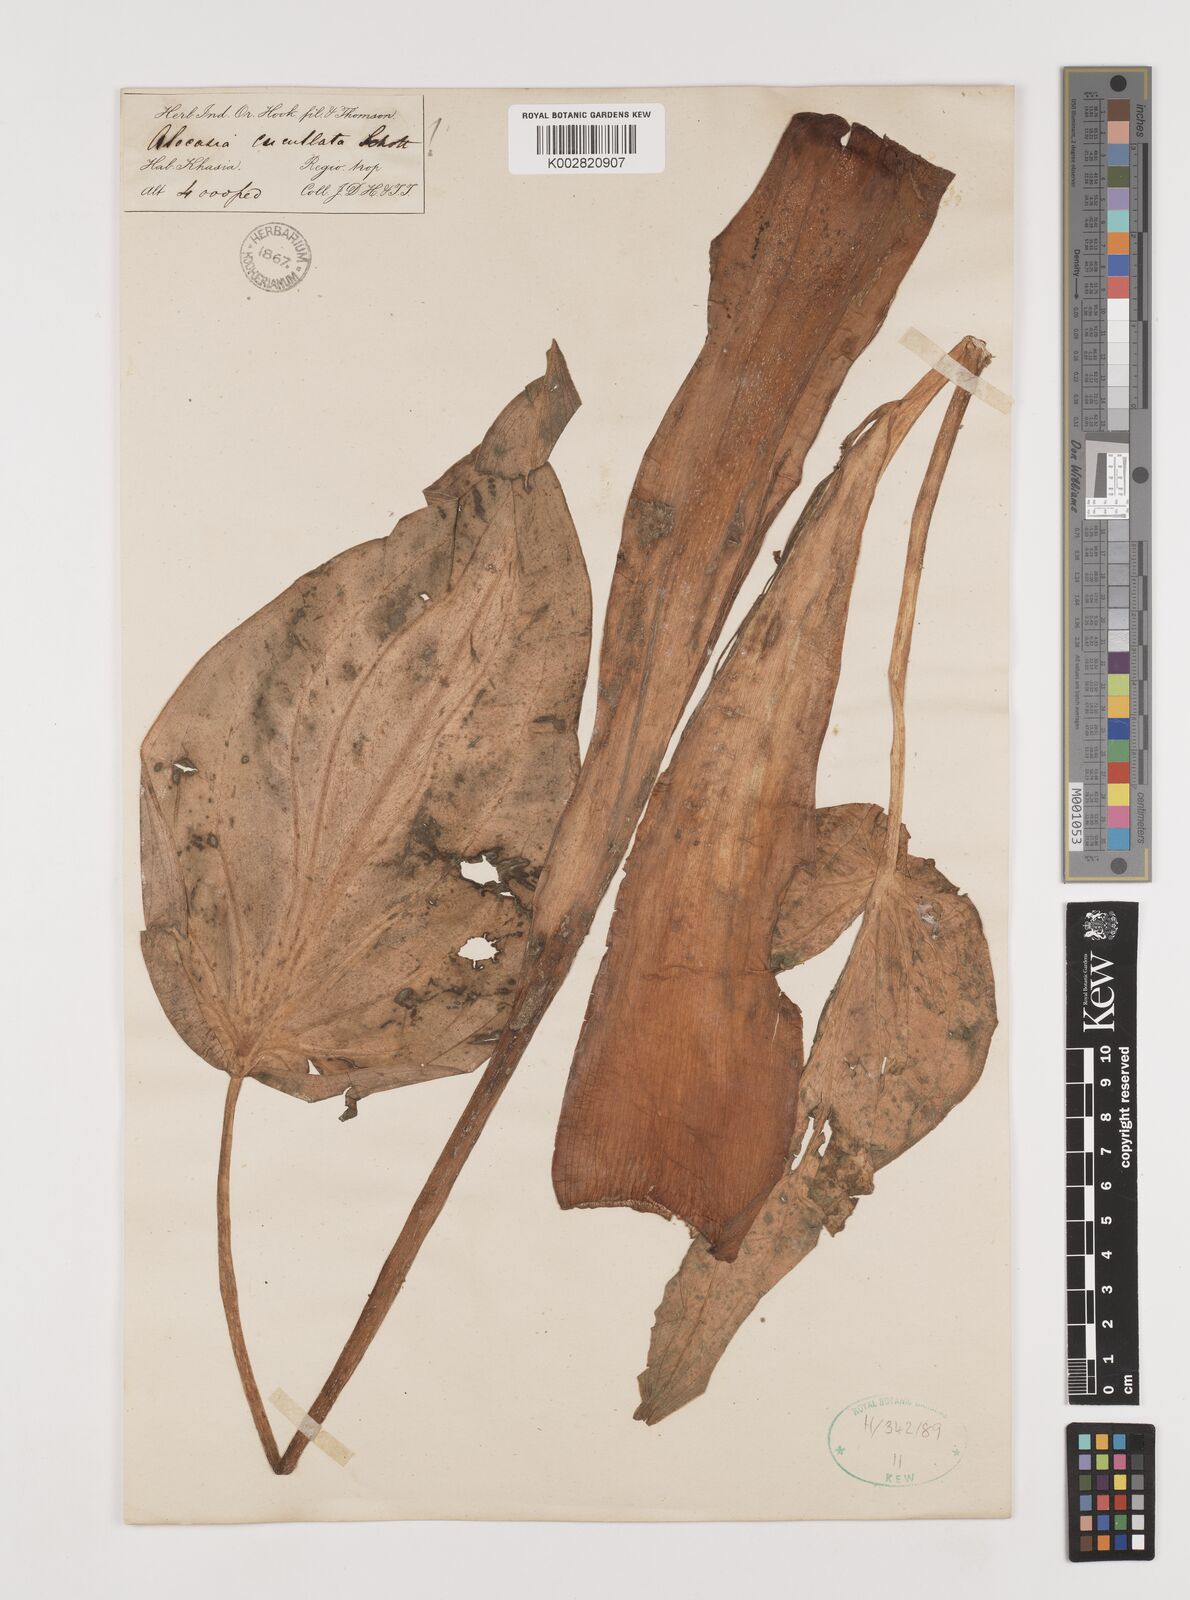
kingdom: Plantae
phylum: Tracheophyta
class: Liliopsida
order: Alismatales
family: Araceae
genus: Alocasia
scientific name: Alocasia cucullata
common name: Buddha's hand
